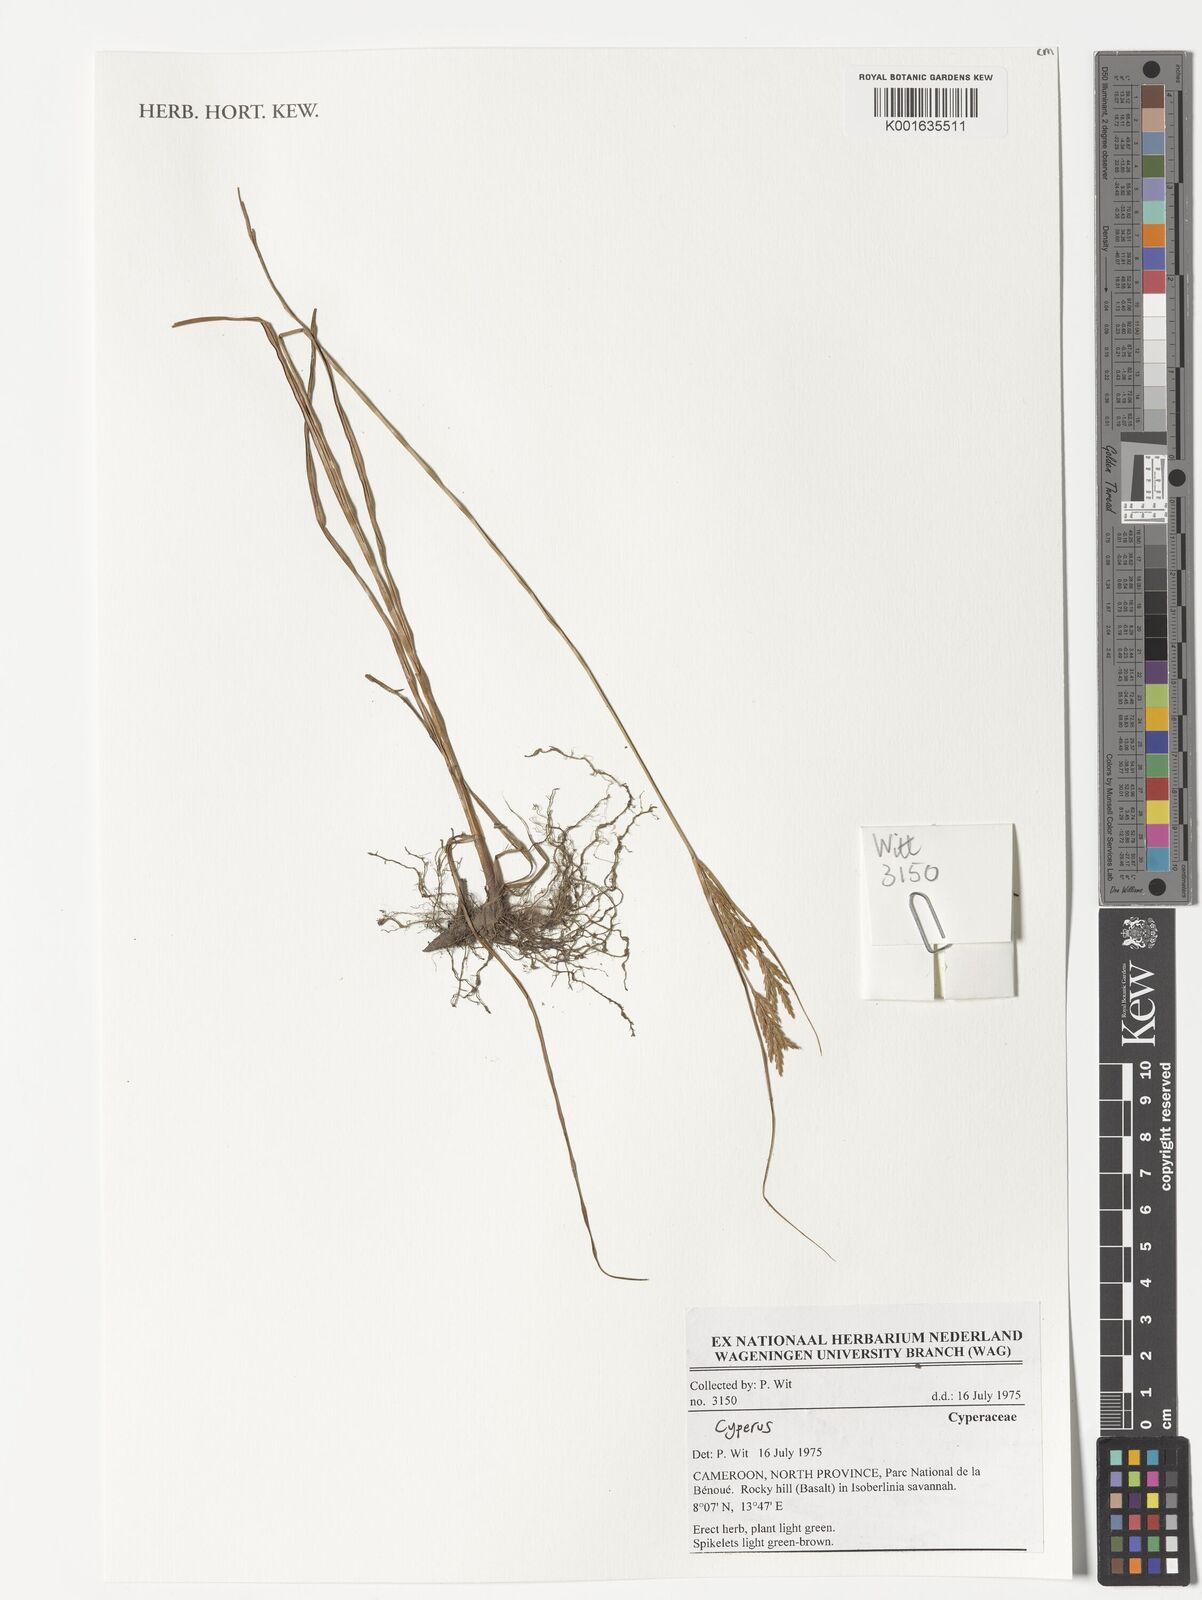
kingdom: Plantae
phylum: Tracheophyta
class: Liliopsida
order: Poales
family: Cyperaceae
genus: Cyperus
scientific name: Cyperus
